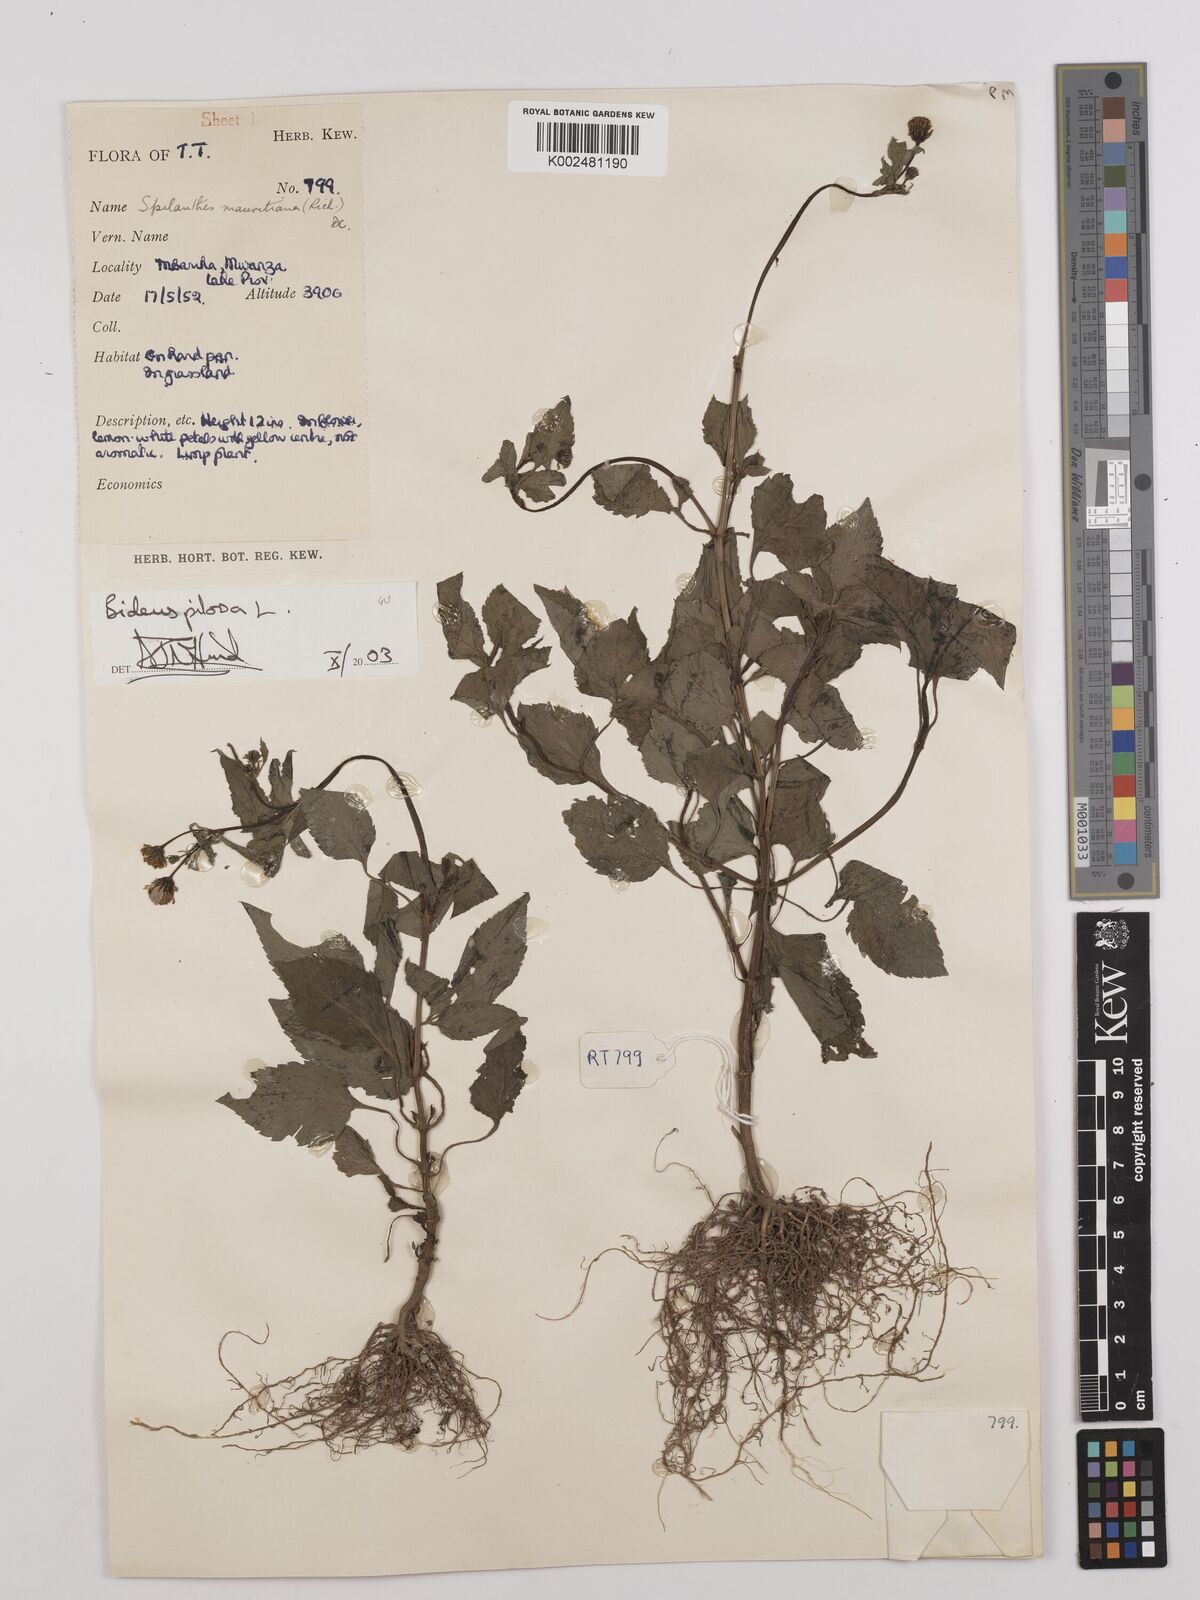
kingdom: Plantae
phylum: Tracheophyta
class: Magnoliopsida
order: Asterales
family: Asteraceae
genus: Bidens
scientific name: Bidens pilosa
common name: Black-jack
